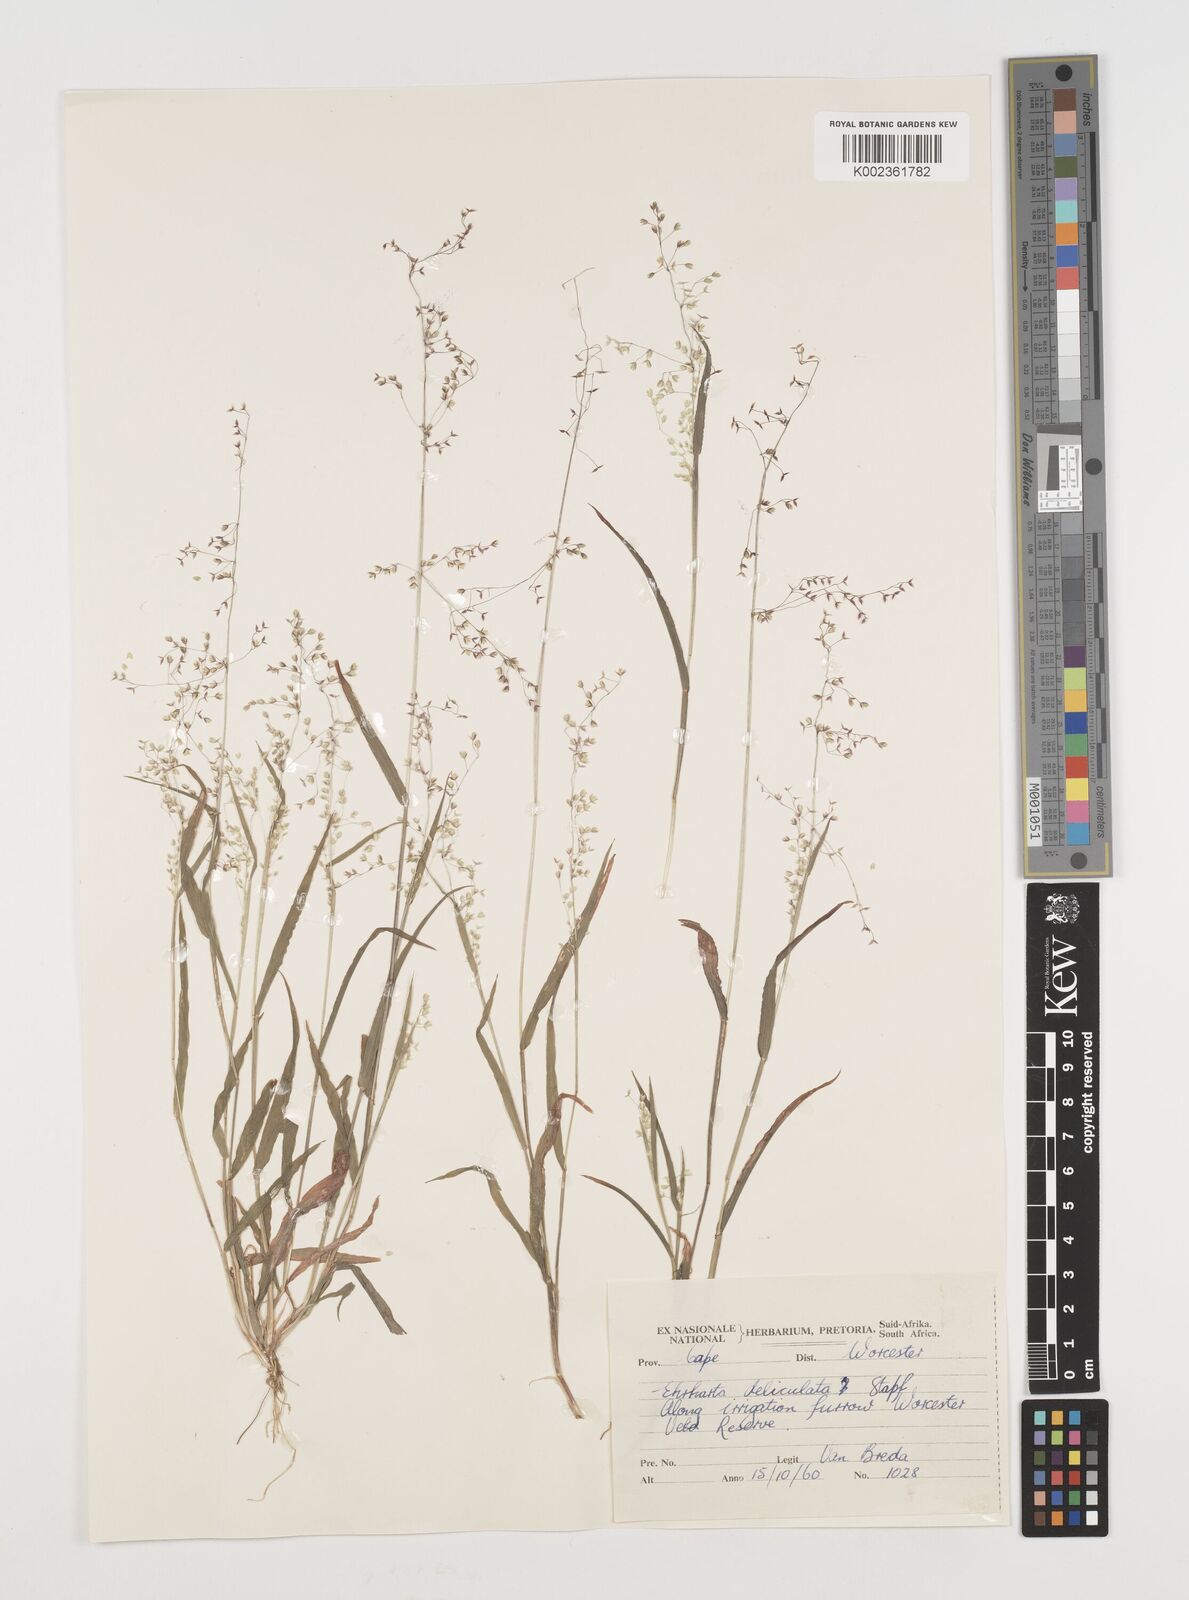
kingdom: Plantae
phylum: Tracheophyta
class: Liliopsida
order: Poales
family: Poaceae
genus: Ehrharta
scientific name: Ehrharta delicatula
